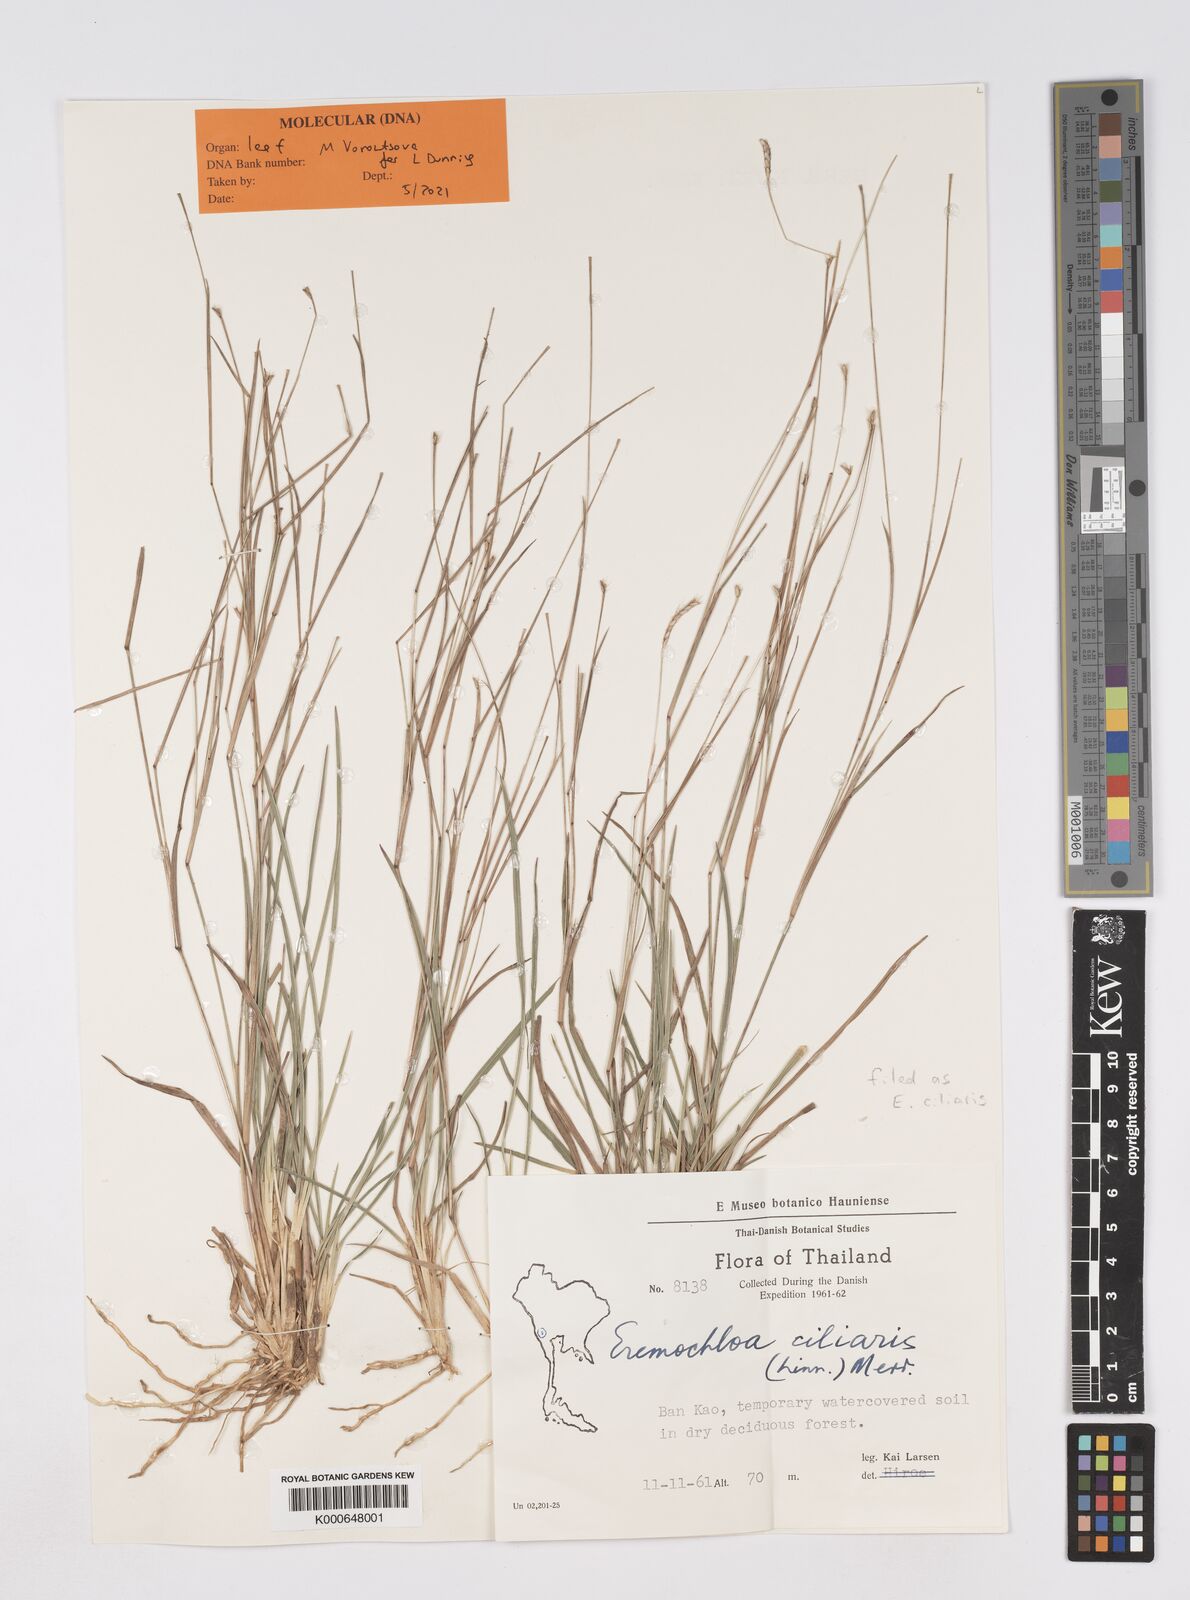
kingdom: Plantae
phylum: Tracheophyta
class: Liliopsida
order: Poales
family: Poaceae
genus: Eremochloa
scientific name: Eremochloa ciliaris
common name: Fringed centipede grass
